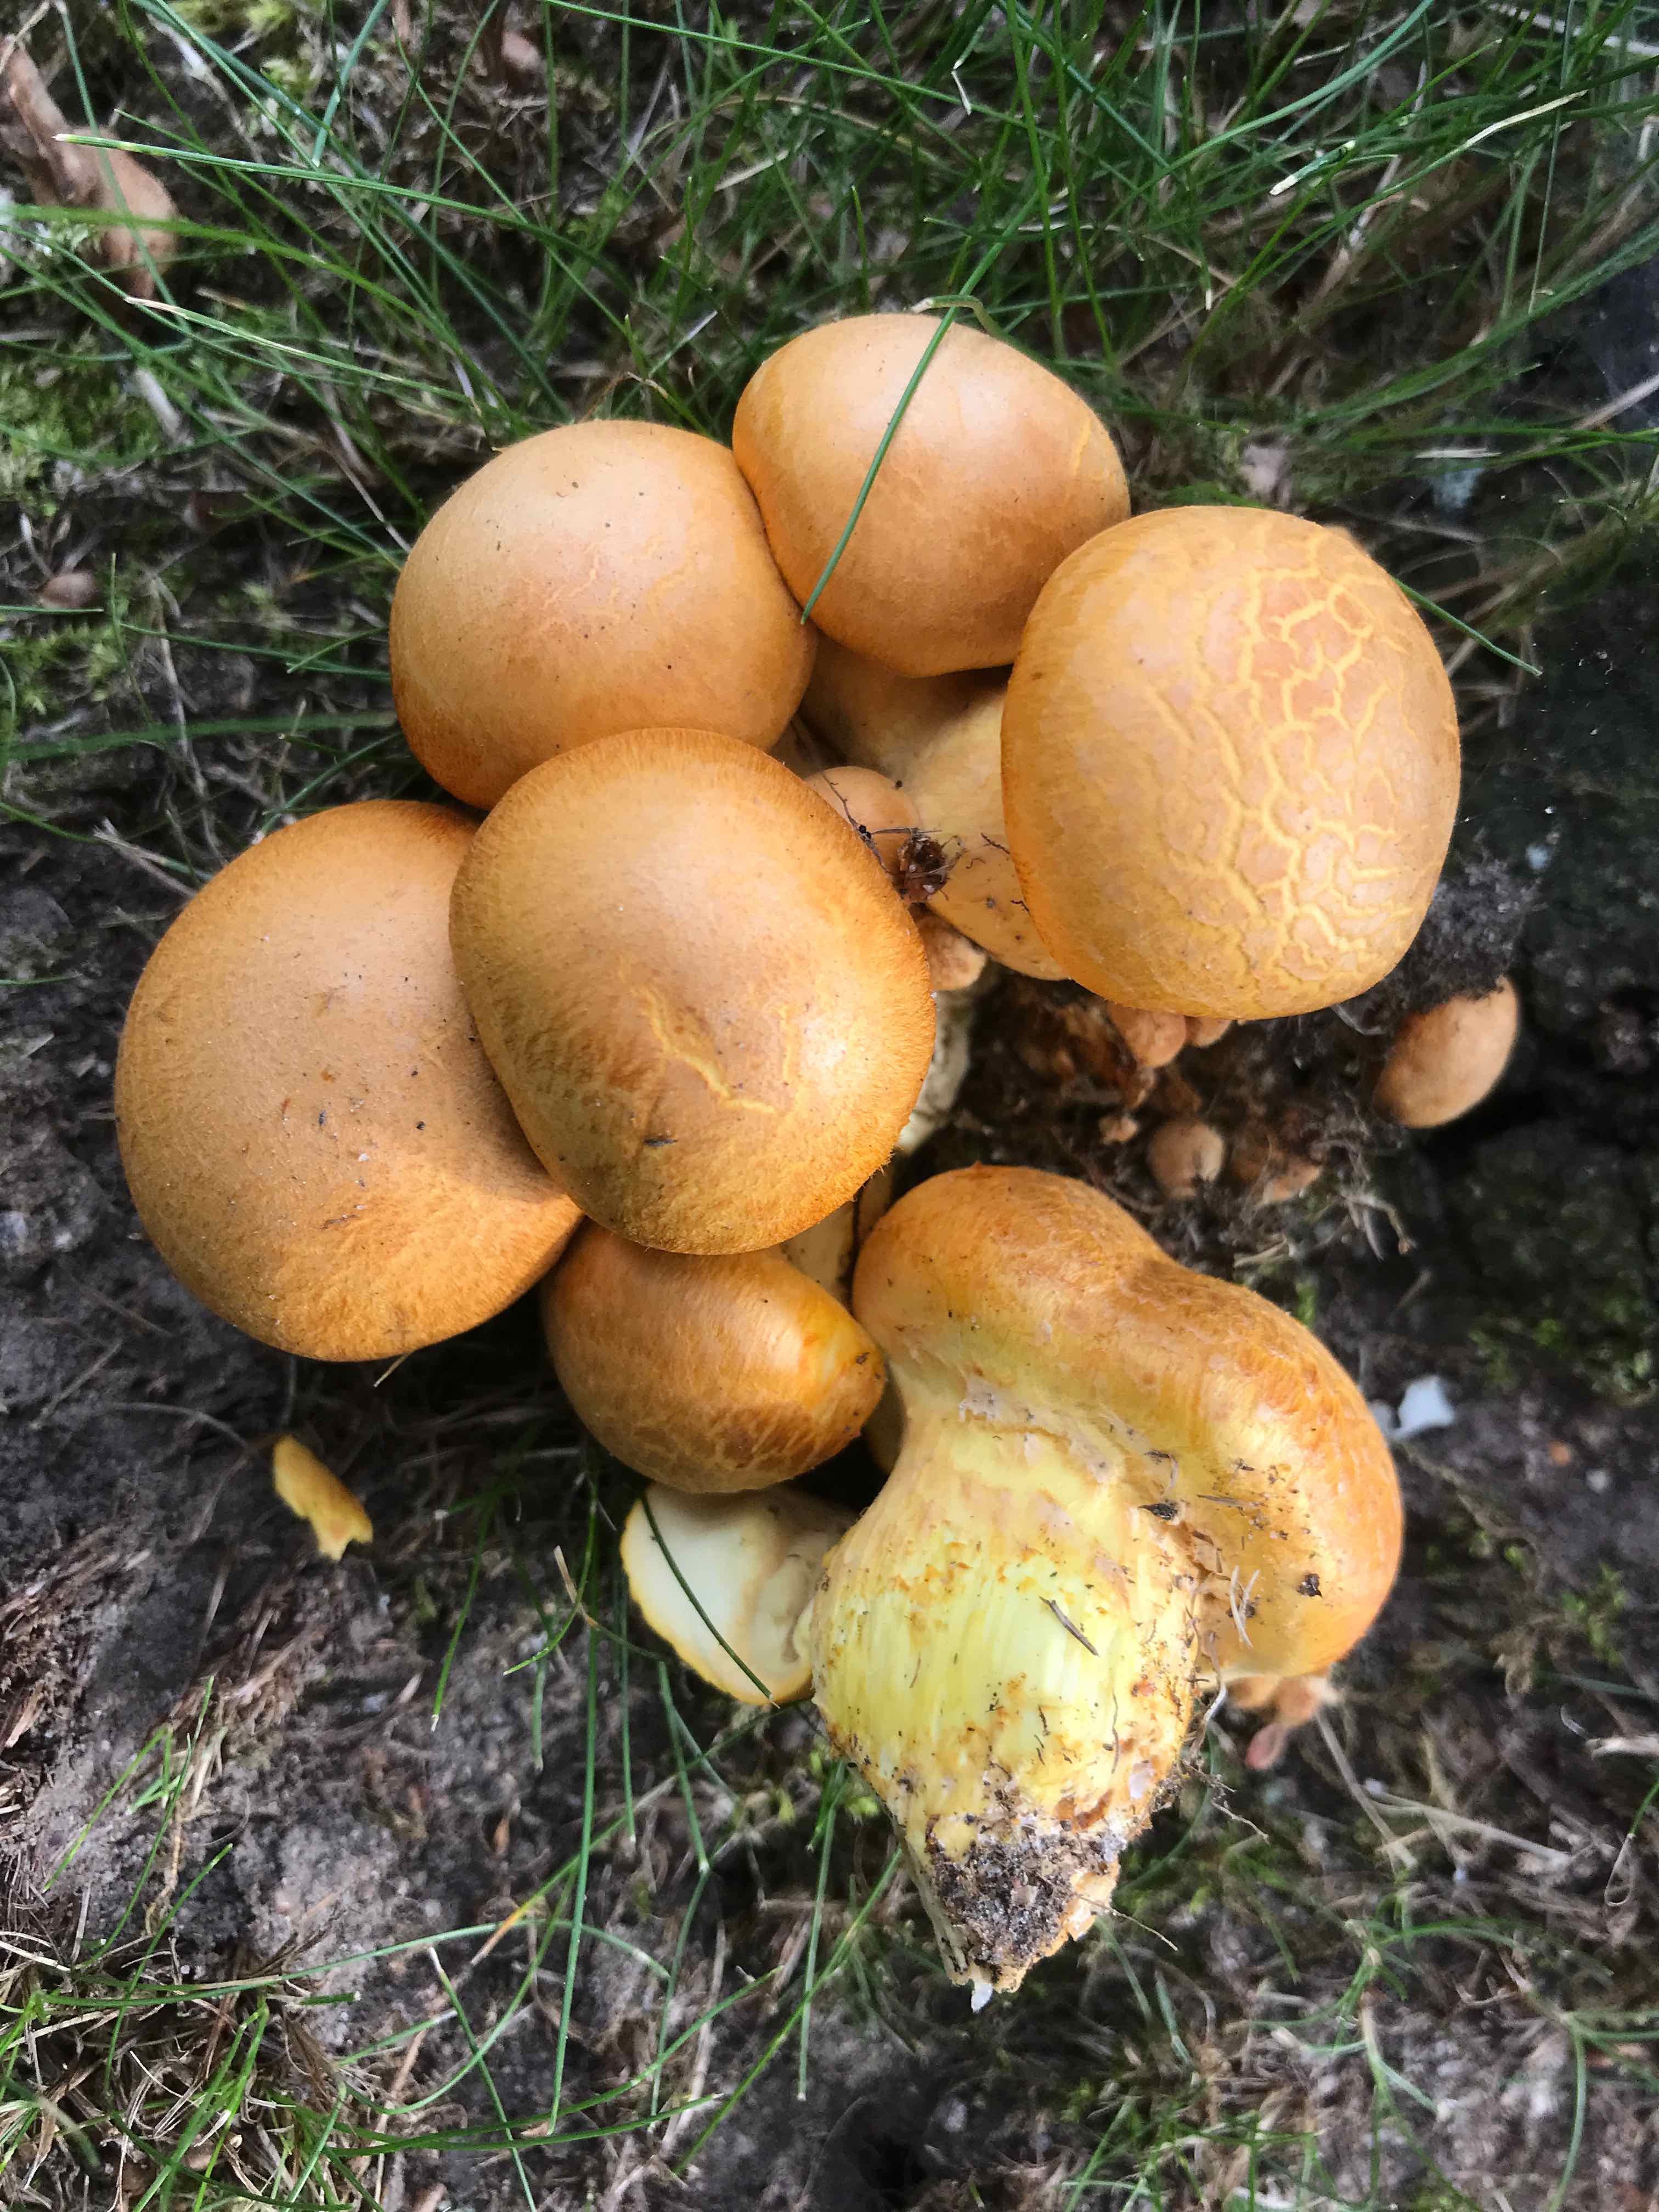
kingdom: Fungi
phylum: Basidiomycota
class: Agaricomycetes
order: Agaricales
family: Hymenogastraceae
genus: Gymnopilus
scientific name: Gymnopilus spectabilis
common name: fibret flammehat
